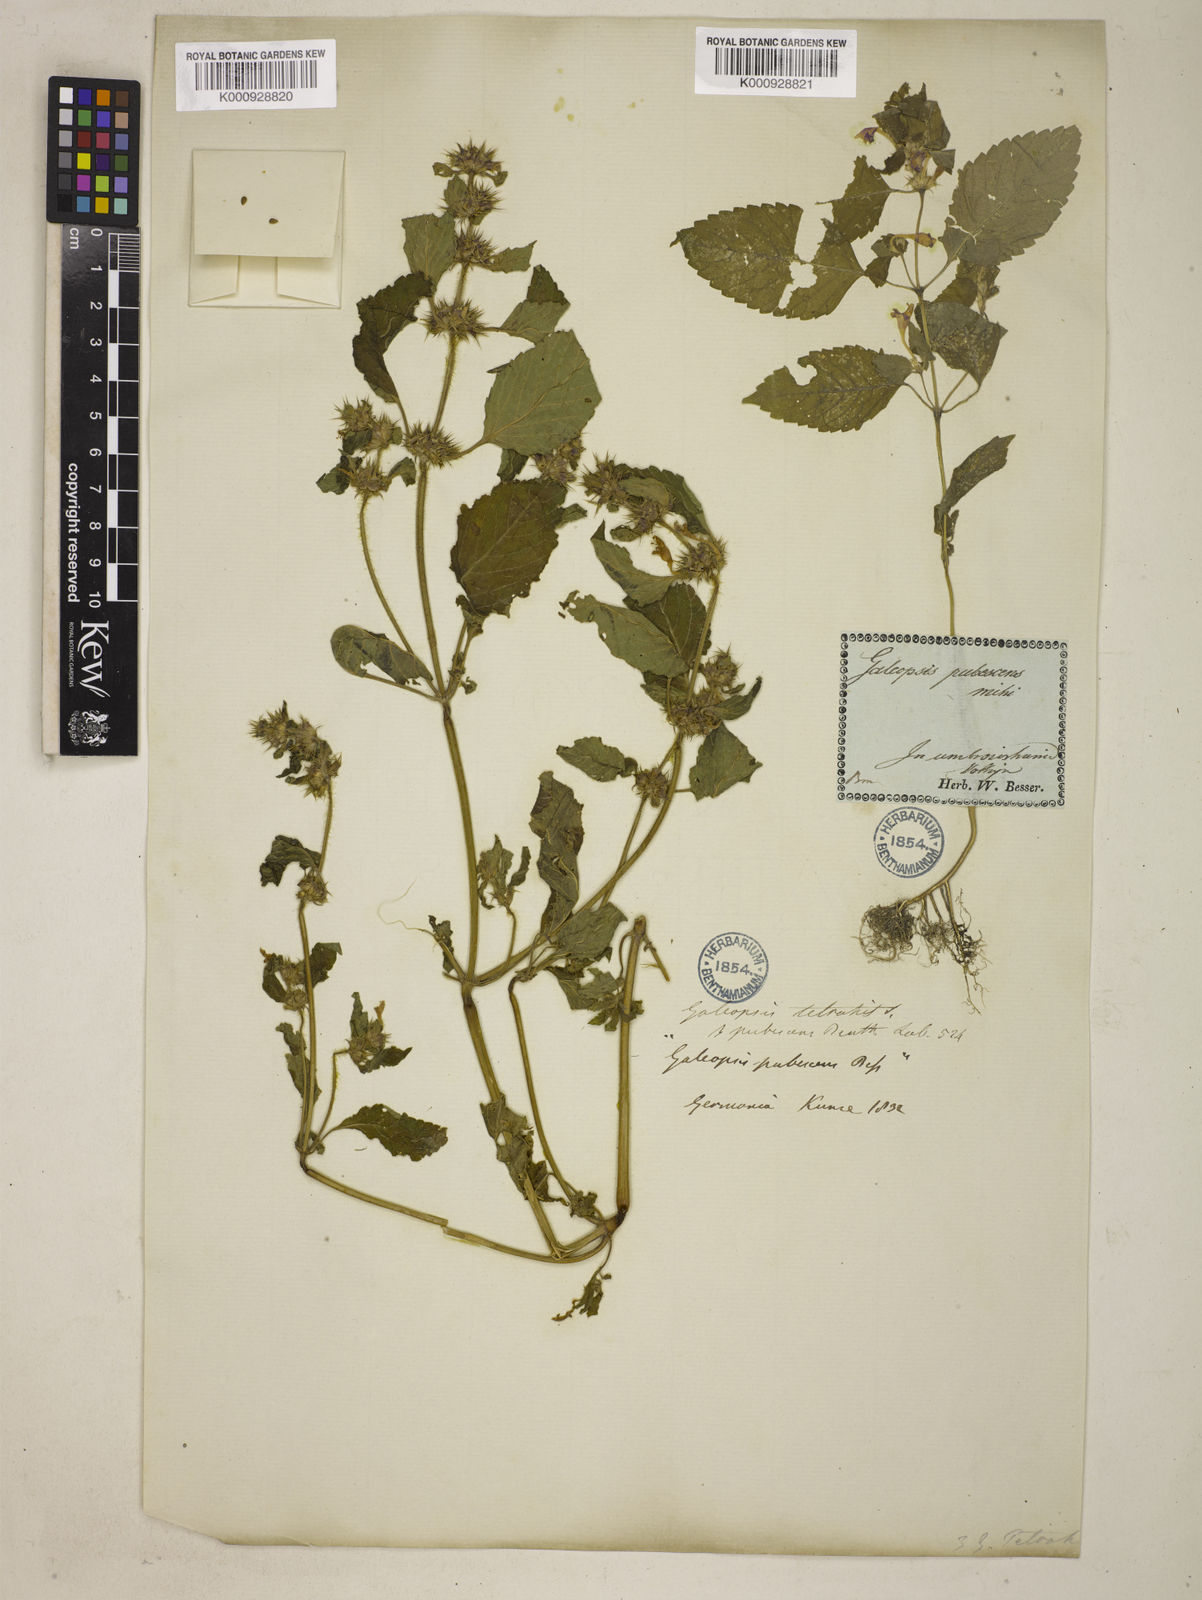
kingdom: Plantae
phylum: Tracheophyta
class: Magnoliopsida
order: Lamiales
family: Lamiaceae
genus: Galeopsis
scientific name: Galeopsis speciosa
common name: Large-flowered hemp-nettle
